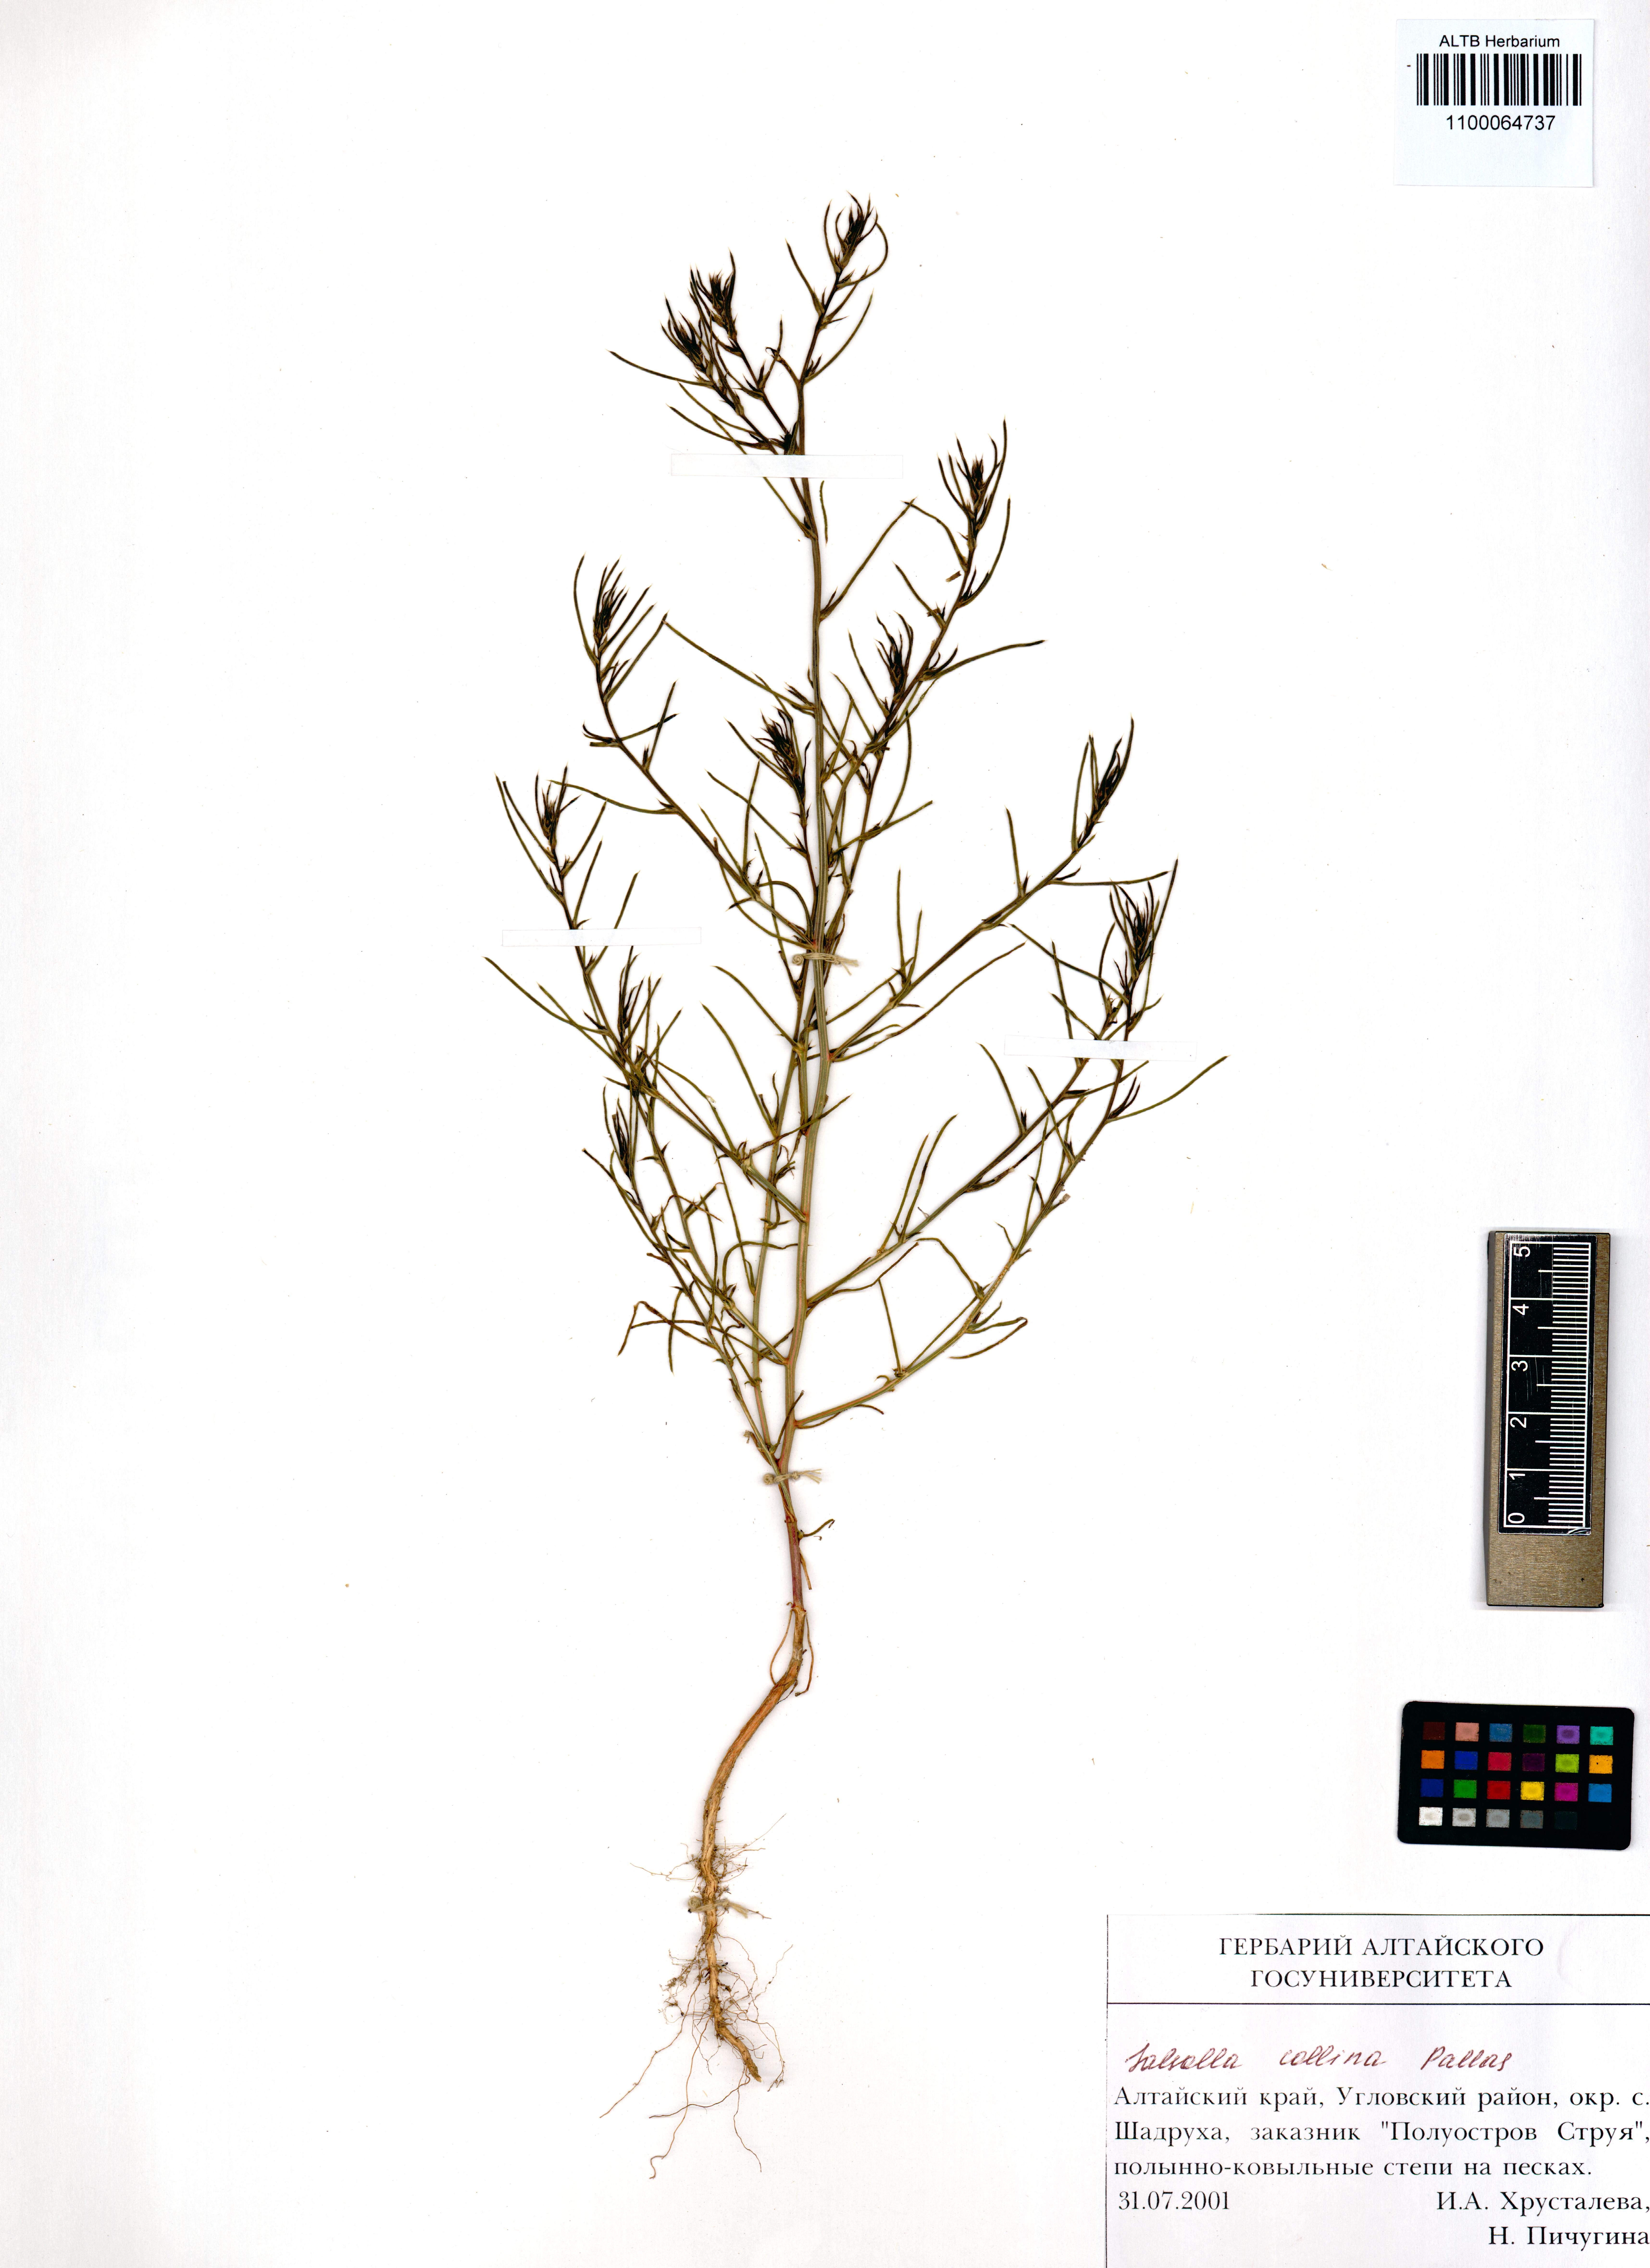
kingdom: Plantae
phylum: Tracheophyta
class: Magnoliopsida
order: Caryophyllales
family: Amaranthaceae
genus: Salsola
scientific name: Salsola collina
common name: Tumbleweed
